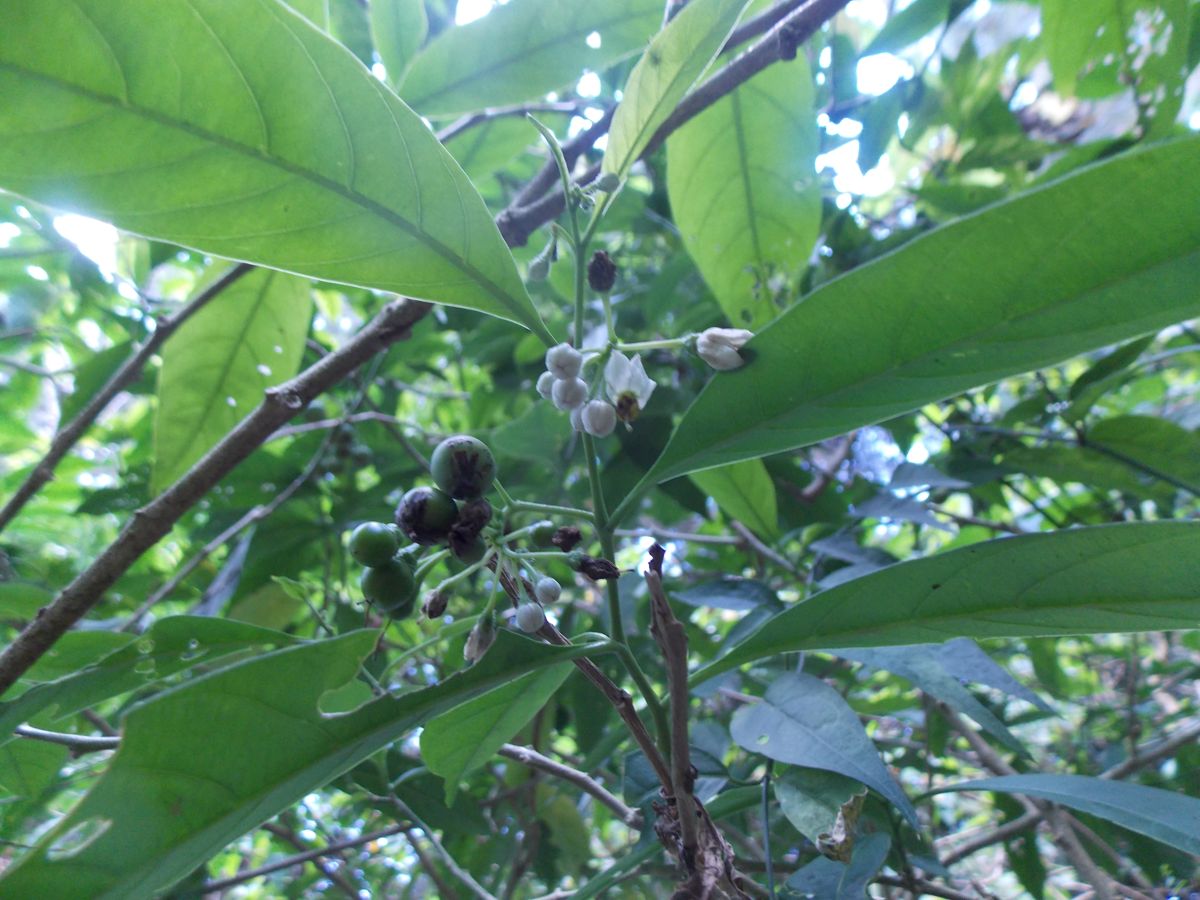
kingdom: Plantae
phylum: Tracheophyta
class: Magnoliopsida
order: Solanales
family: Solanaceae
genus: Solanum
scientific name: Solanum aphyodendron
